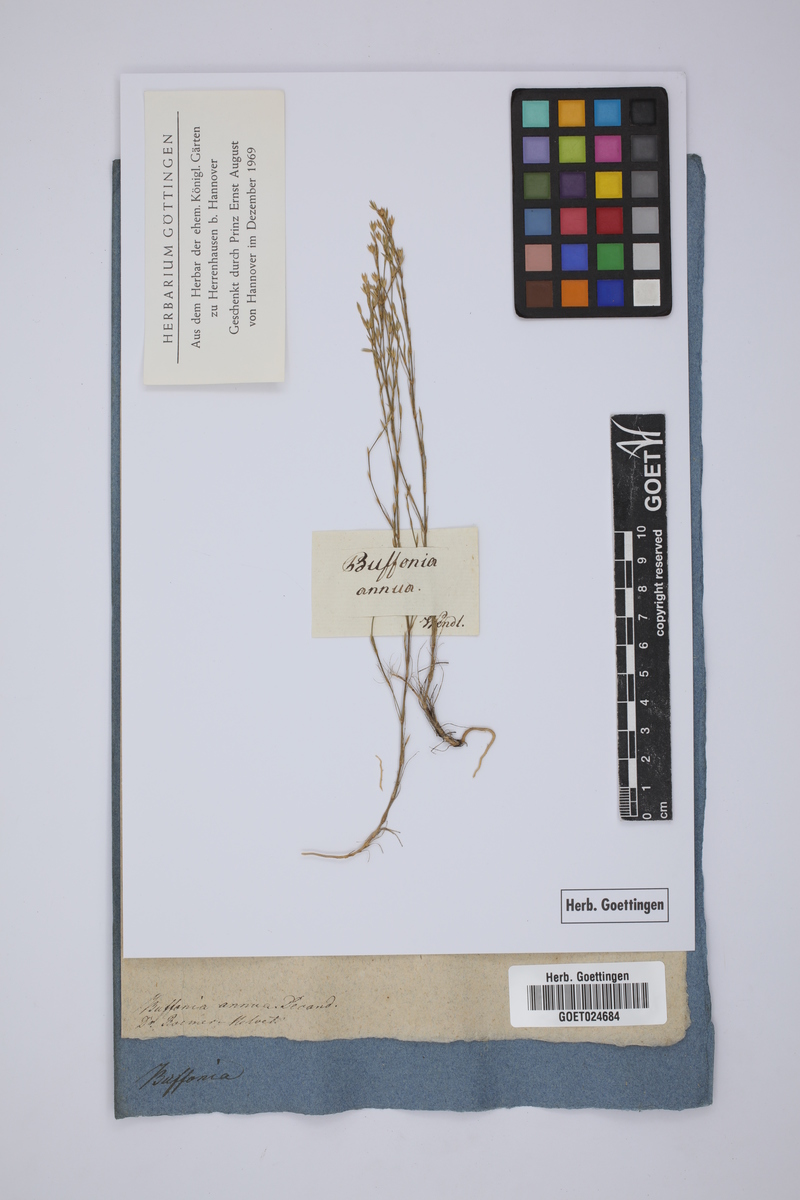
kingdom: Plantae
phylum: Tracheophyta
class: Magnoliopsida
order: Caryophyllales
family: Caryophyllaceae
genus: Bufonia
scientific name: Bufonia tenuifolia
